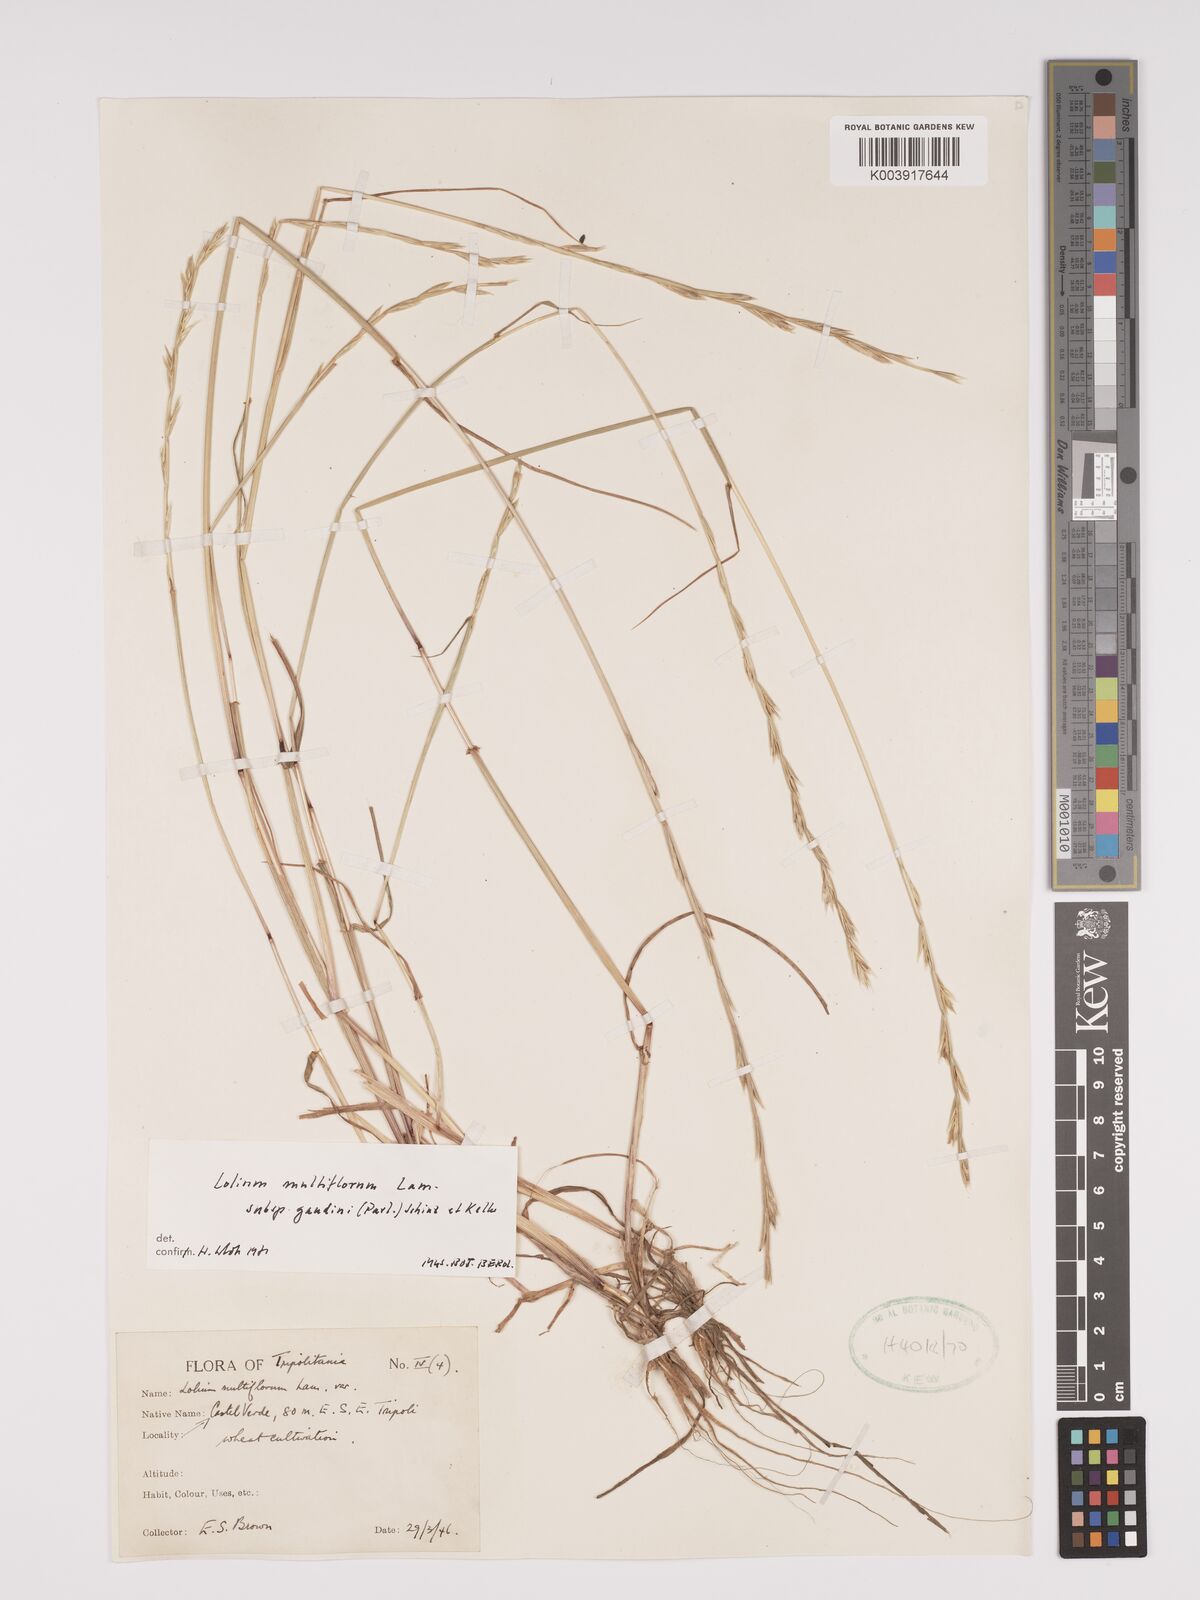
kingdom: Plantae
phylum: Tracheophyta
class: Liliopsida
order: Poales
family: Poaceae
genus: Lolium
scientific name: Lolium multiflorum
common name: Annual ryegrass
